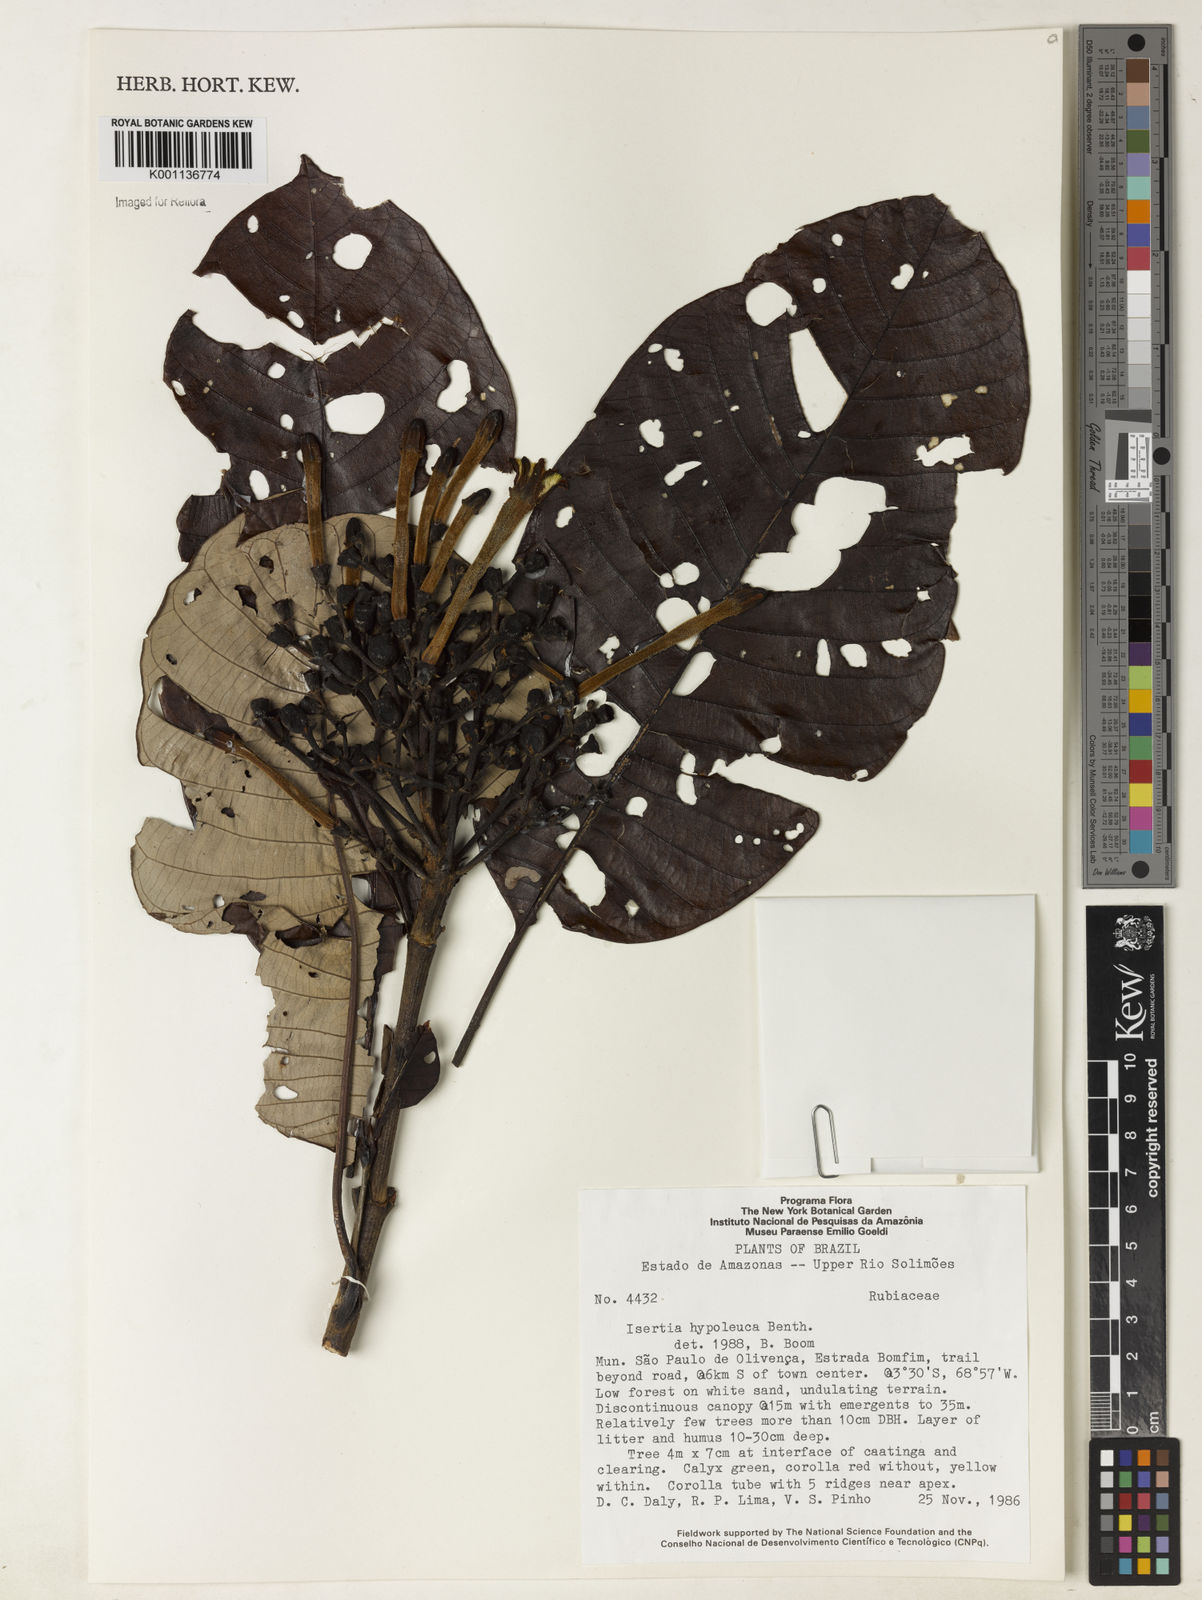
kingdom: Plantae
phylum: Tracheophyta
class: Magnoliopsida
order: Gentianales
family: Rubiaceae
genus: Isertia
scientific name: Isertia hypoleuca
